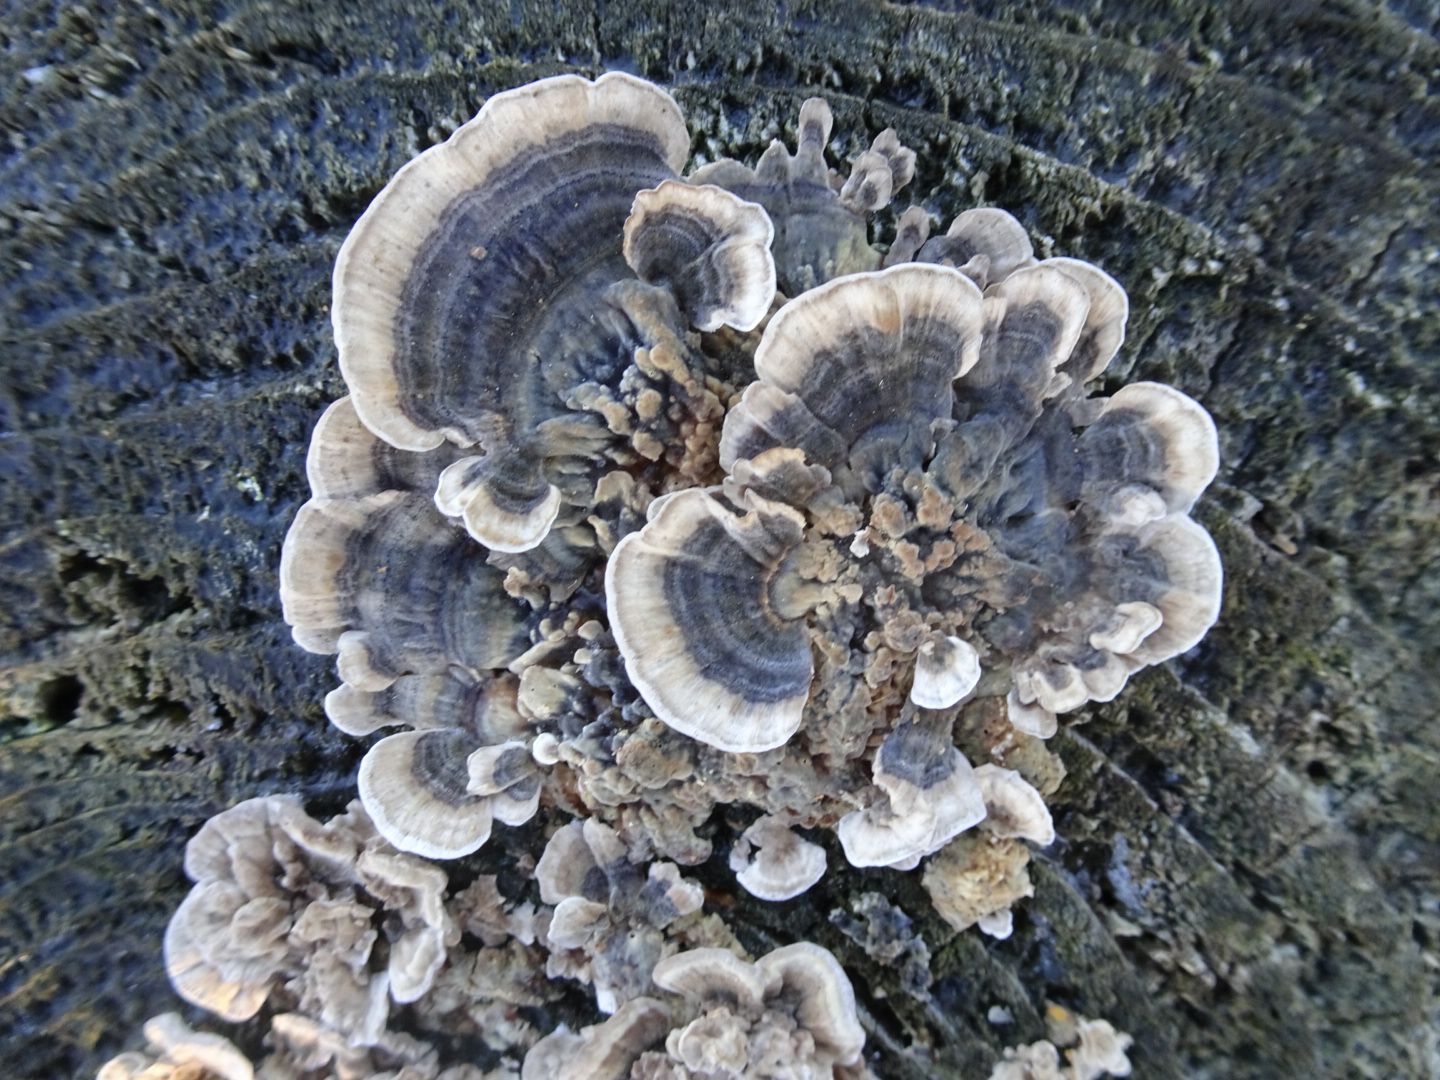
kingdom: Fungi
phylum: Basidiomycota
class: Agaricomycetes
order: Polyporales
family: Polyporaceae
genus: Trametes
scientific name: Trametes versicolor
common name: broget læderporesvamp
